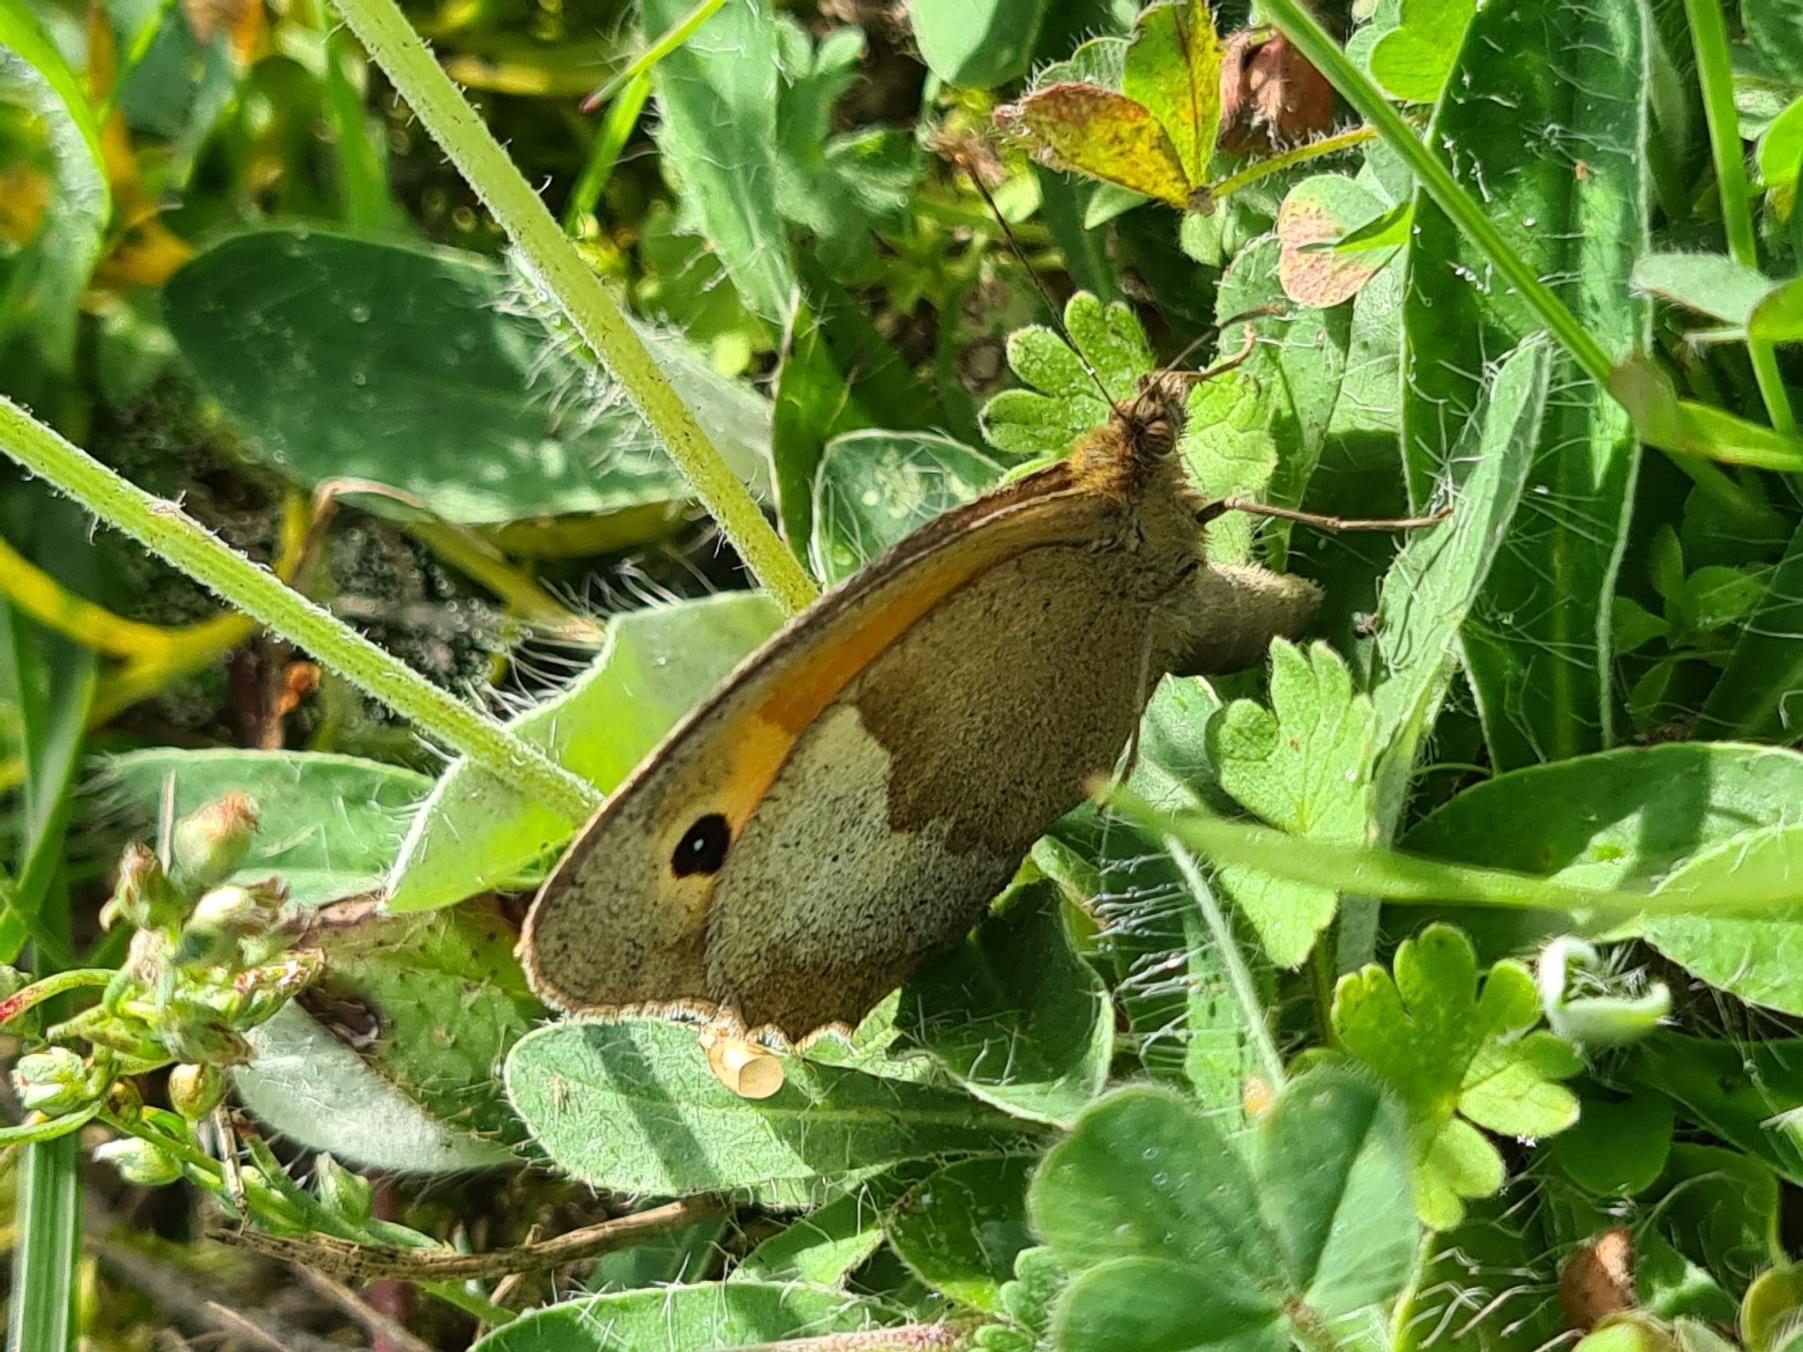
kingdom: Animalia
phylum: Arthropoda
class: Insecta
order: Lepidoptera
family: Nymphalidae
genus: Maniola
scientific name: Maniola jurtina
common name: Græsrandøje
